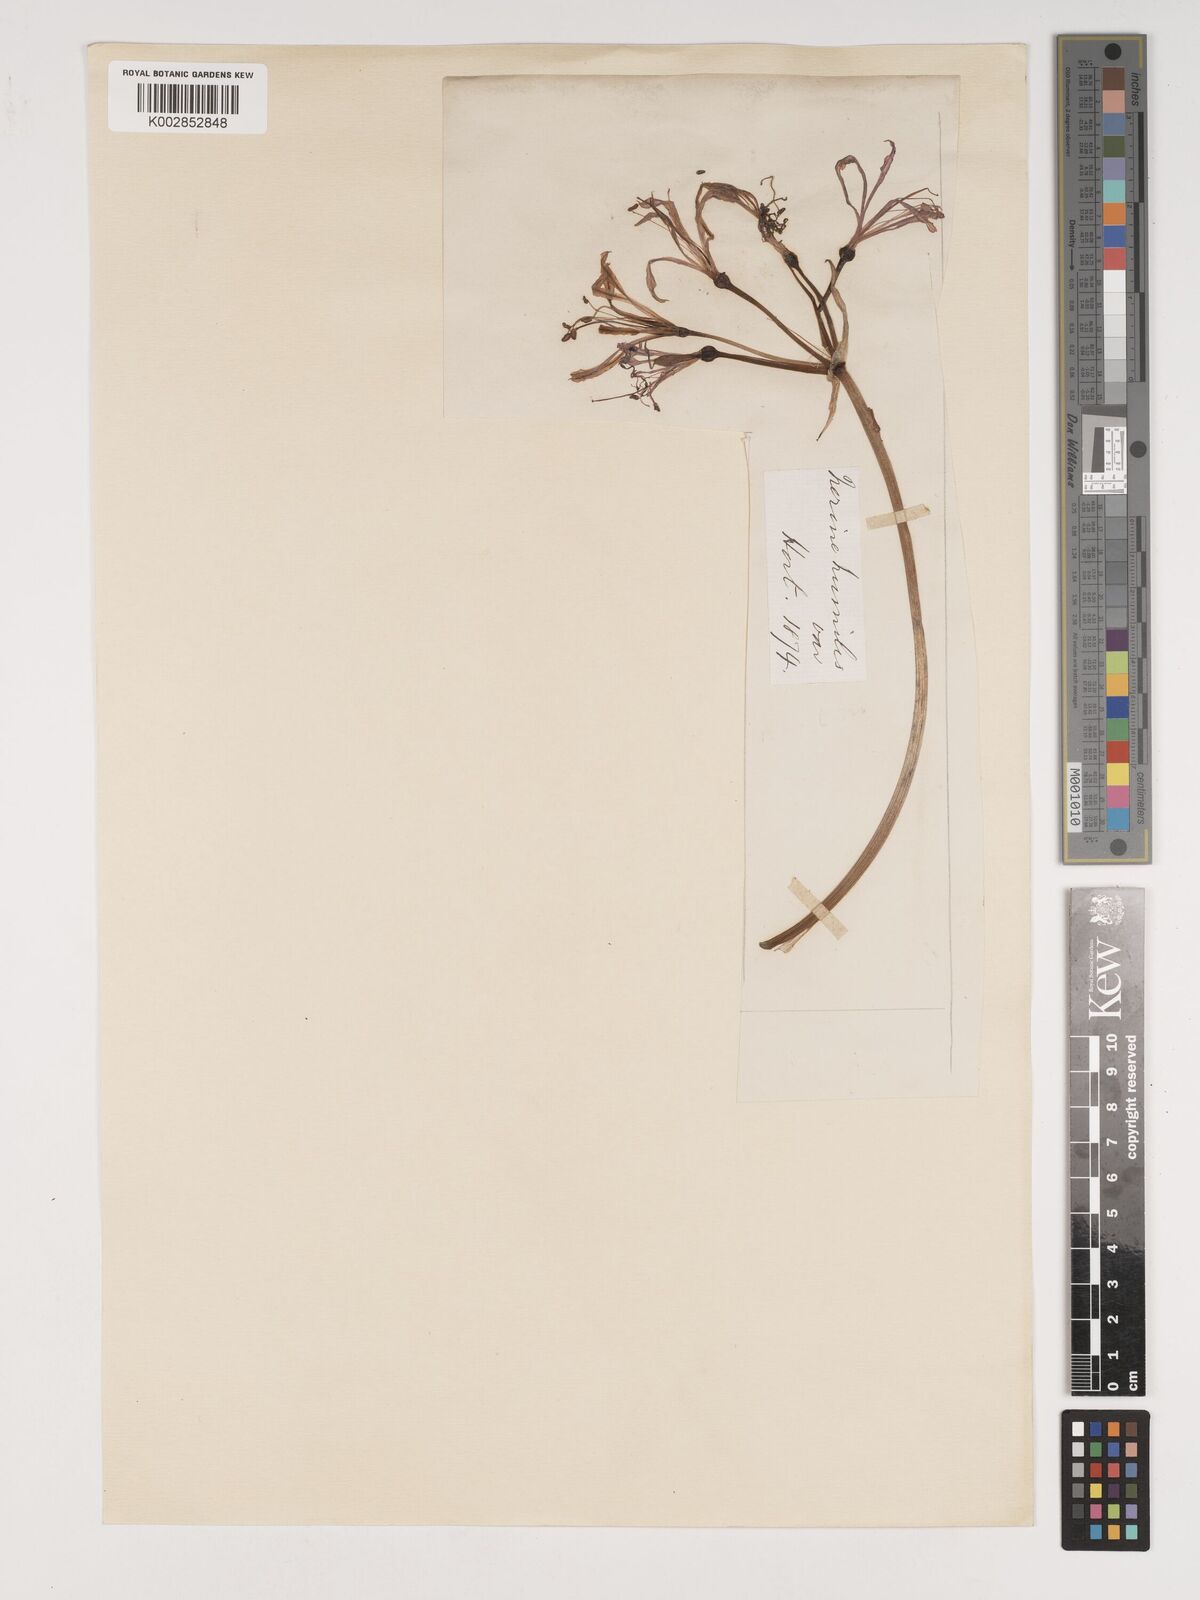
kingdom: Plantae
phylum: Tracheophyta
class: Liliopsida
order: Asparagales
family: Amaryllidaceae
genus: Nerine
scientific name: Nerine
